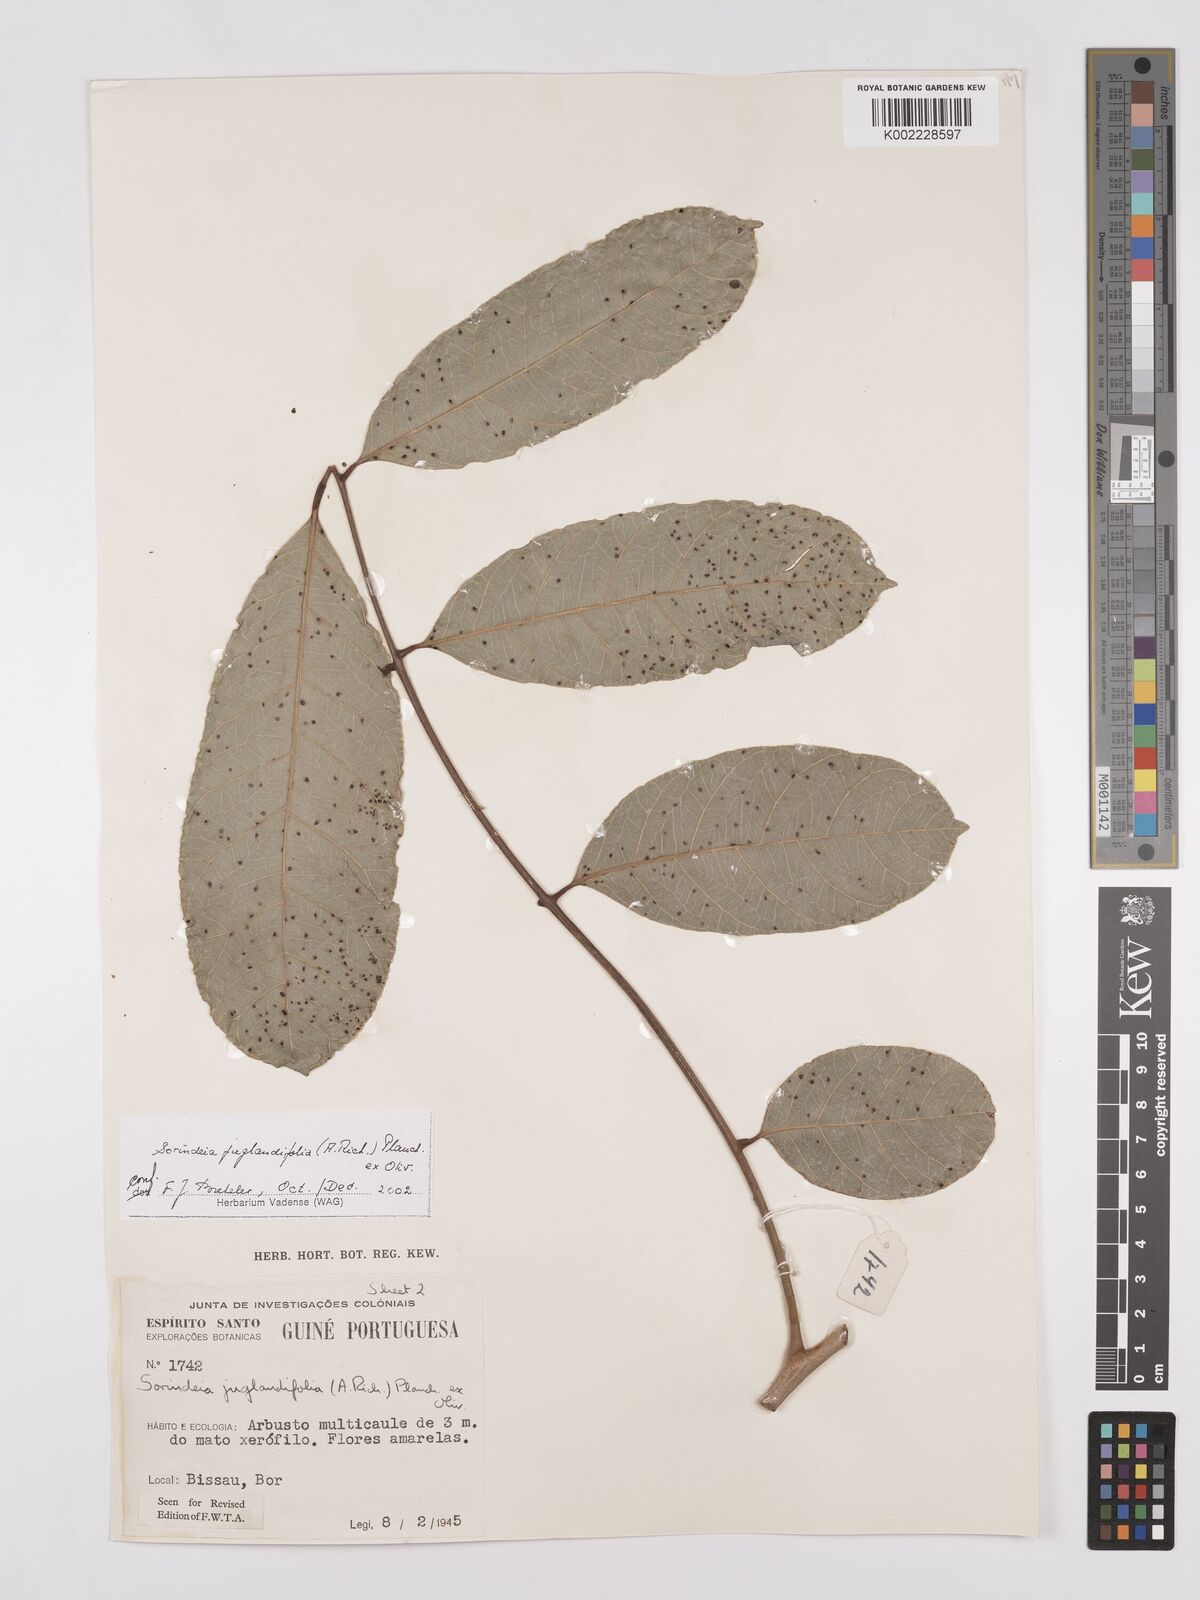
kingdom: Plantae
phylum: Tracheophyta
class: Magnoliopsida
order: Sapindales
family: Anacardiaceae
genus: Sorindeia
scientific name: Sorindeia juglandifolia
